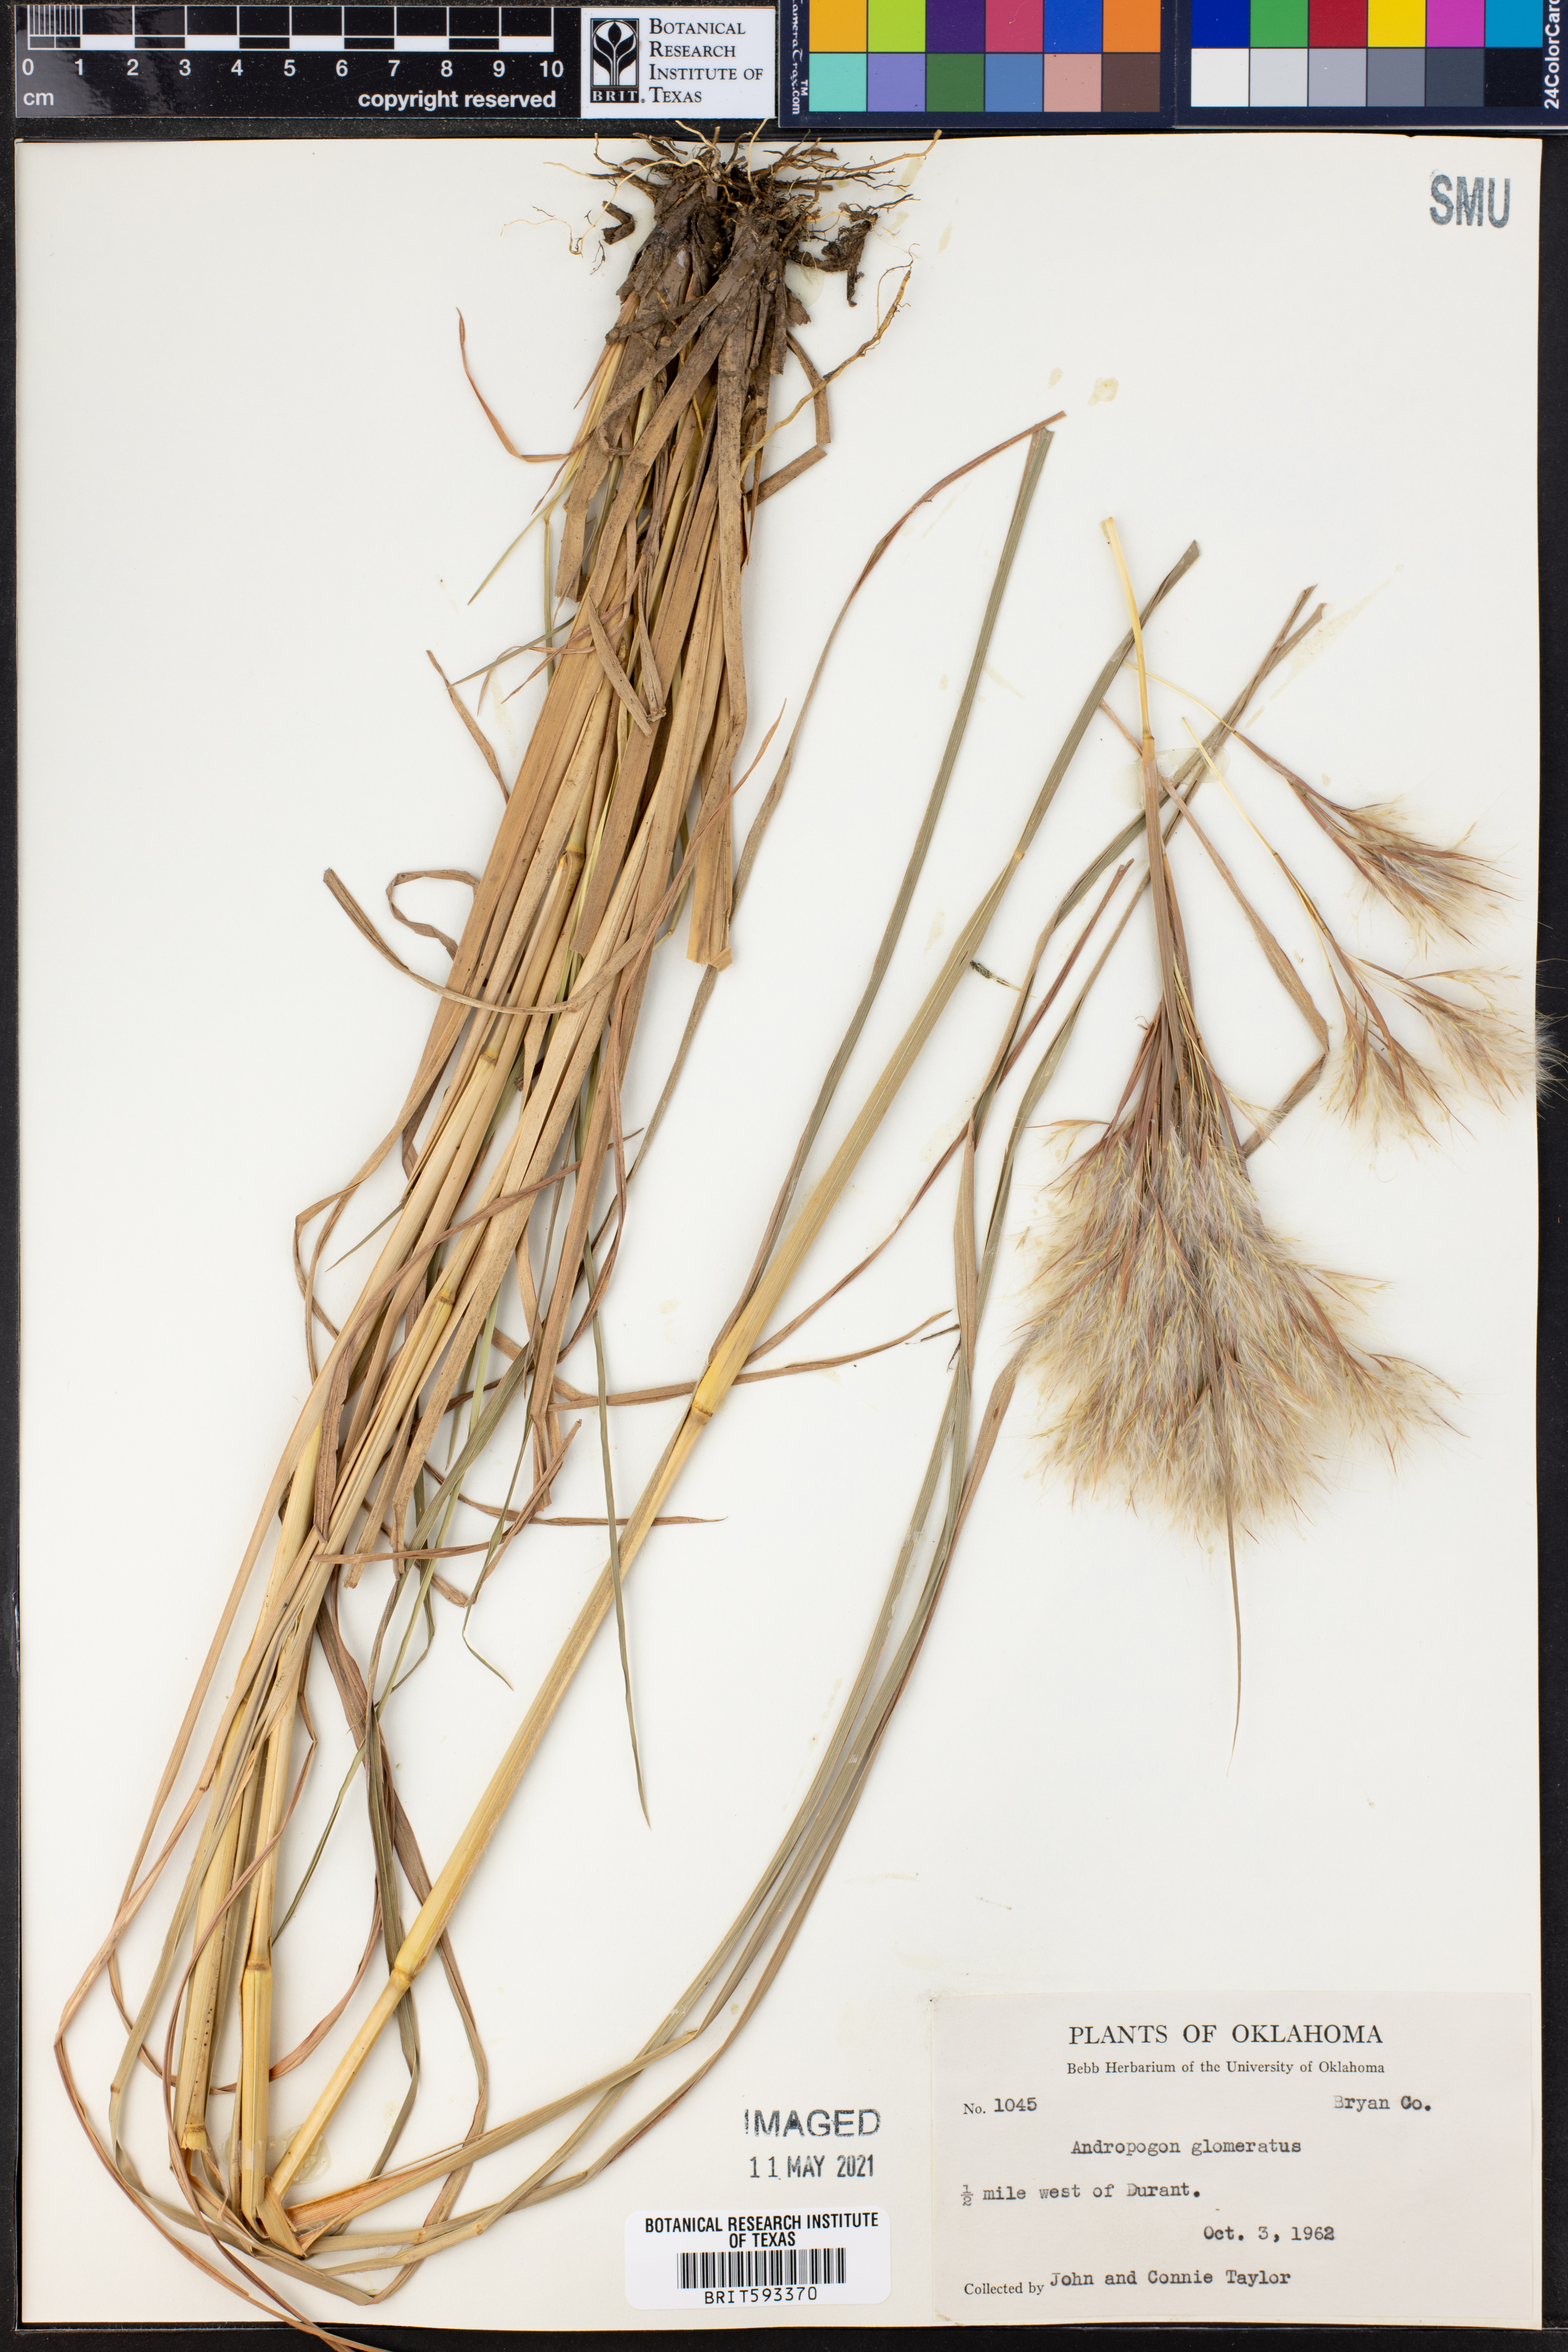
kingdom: Plantae
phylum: Tracheophyta
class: Liliopsida
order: Poales
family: Poaceae
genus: Andropogon
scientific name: Andropogon glomeratus
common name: Bushy beard grass
